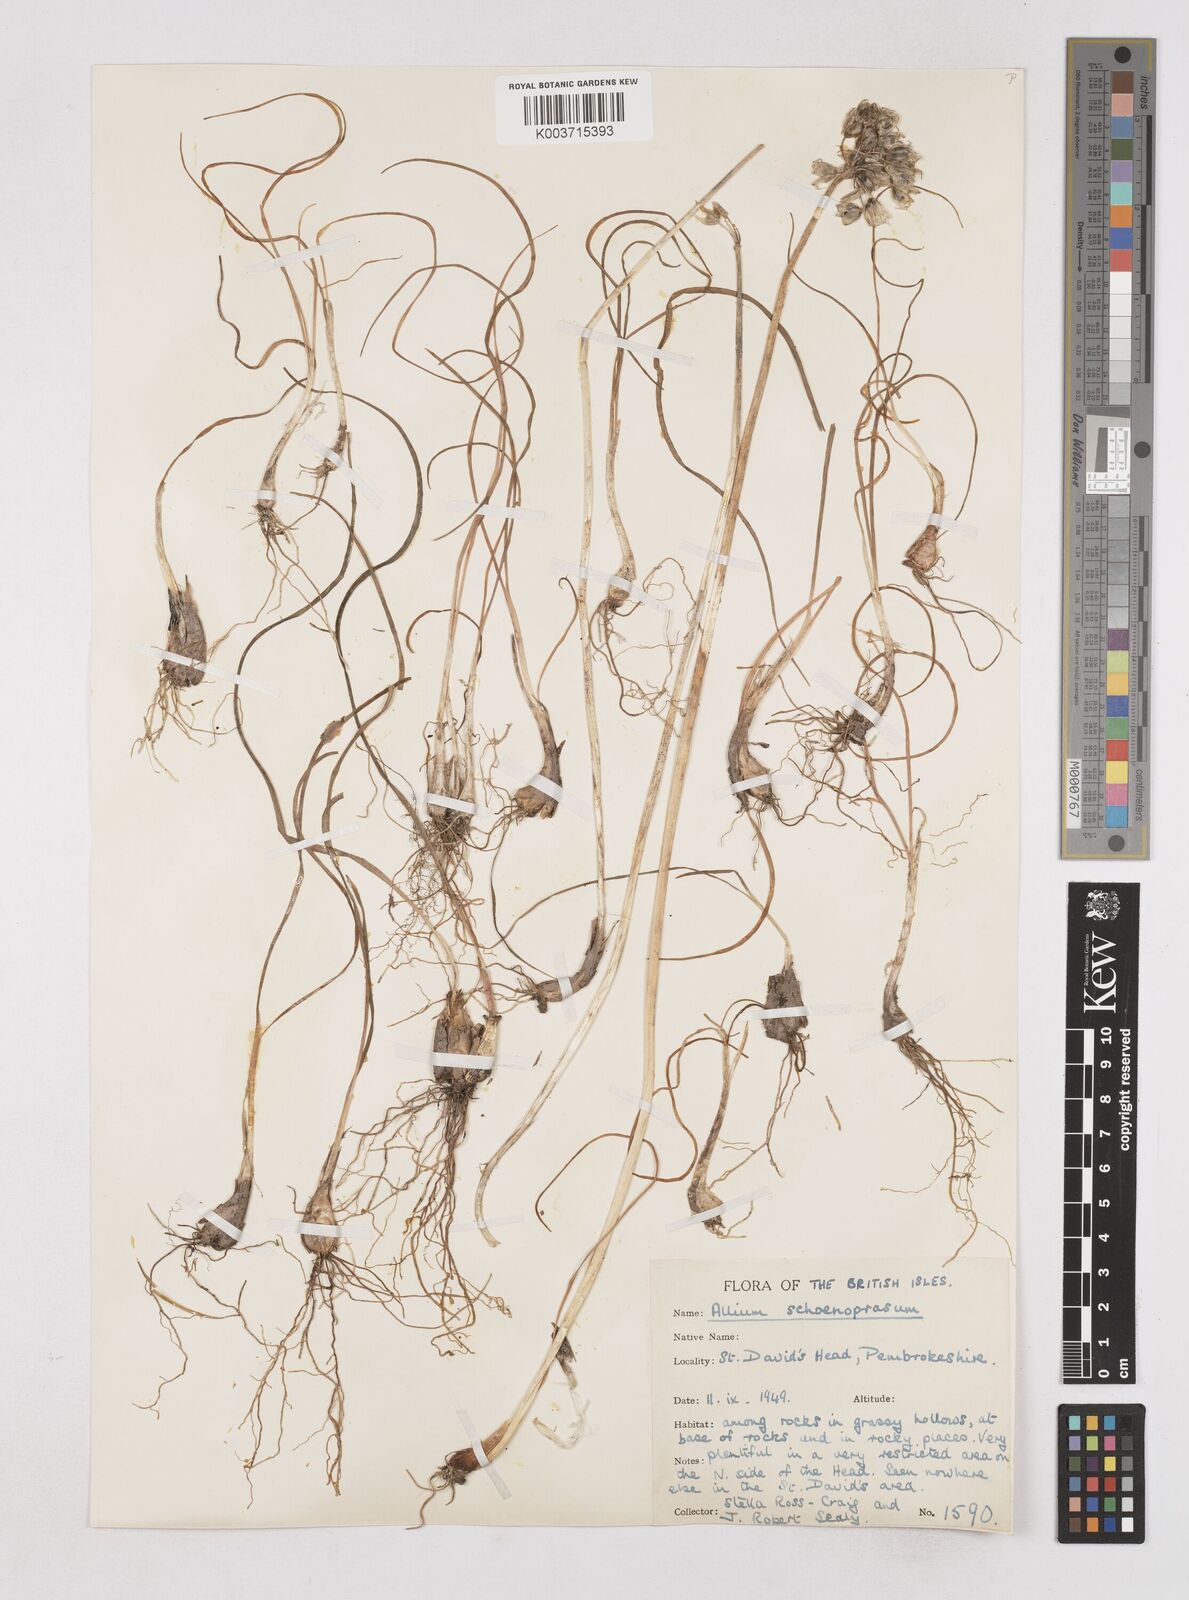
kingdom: Plantae
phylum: Tracheophyta
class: Liliopsida
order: Asparagales
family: Amaryllidaceae
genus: Allium
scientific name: Allium schoenoprasum
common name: Chives
